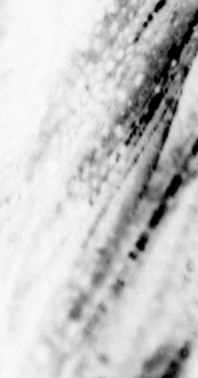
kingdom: Animalia
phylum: Chordata
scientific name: Chordata
